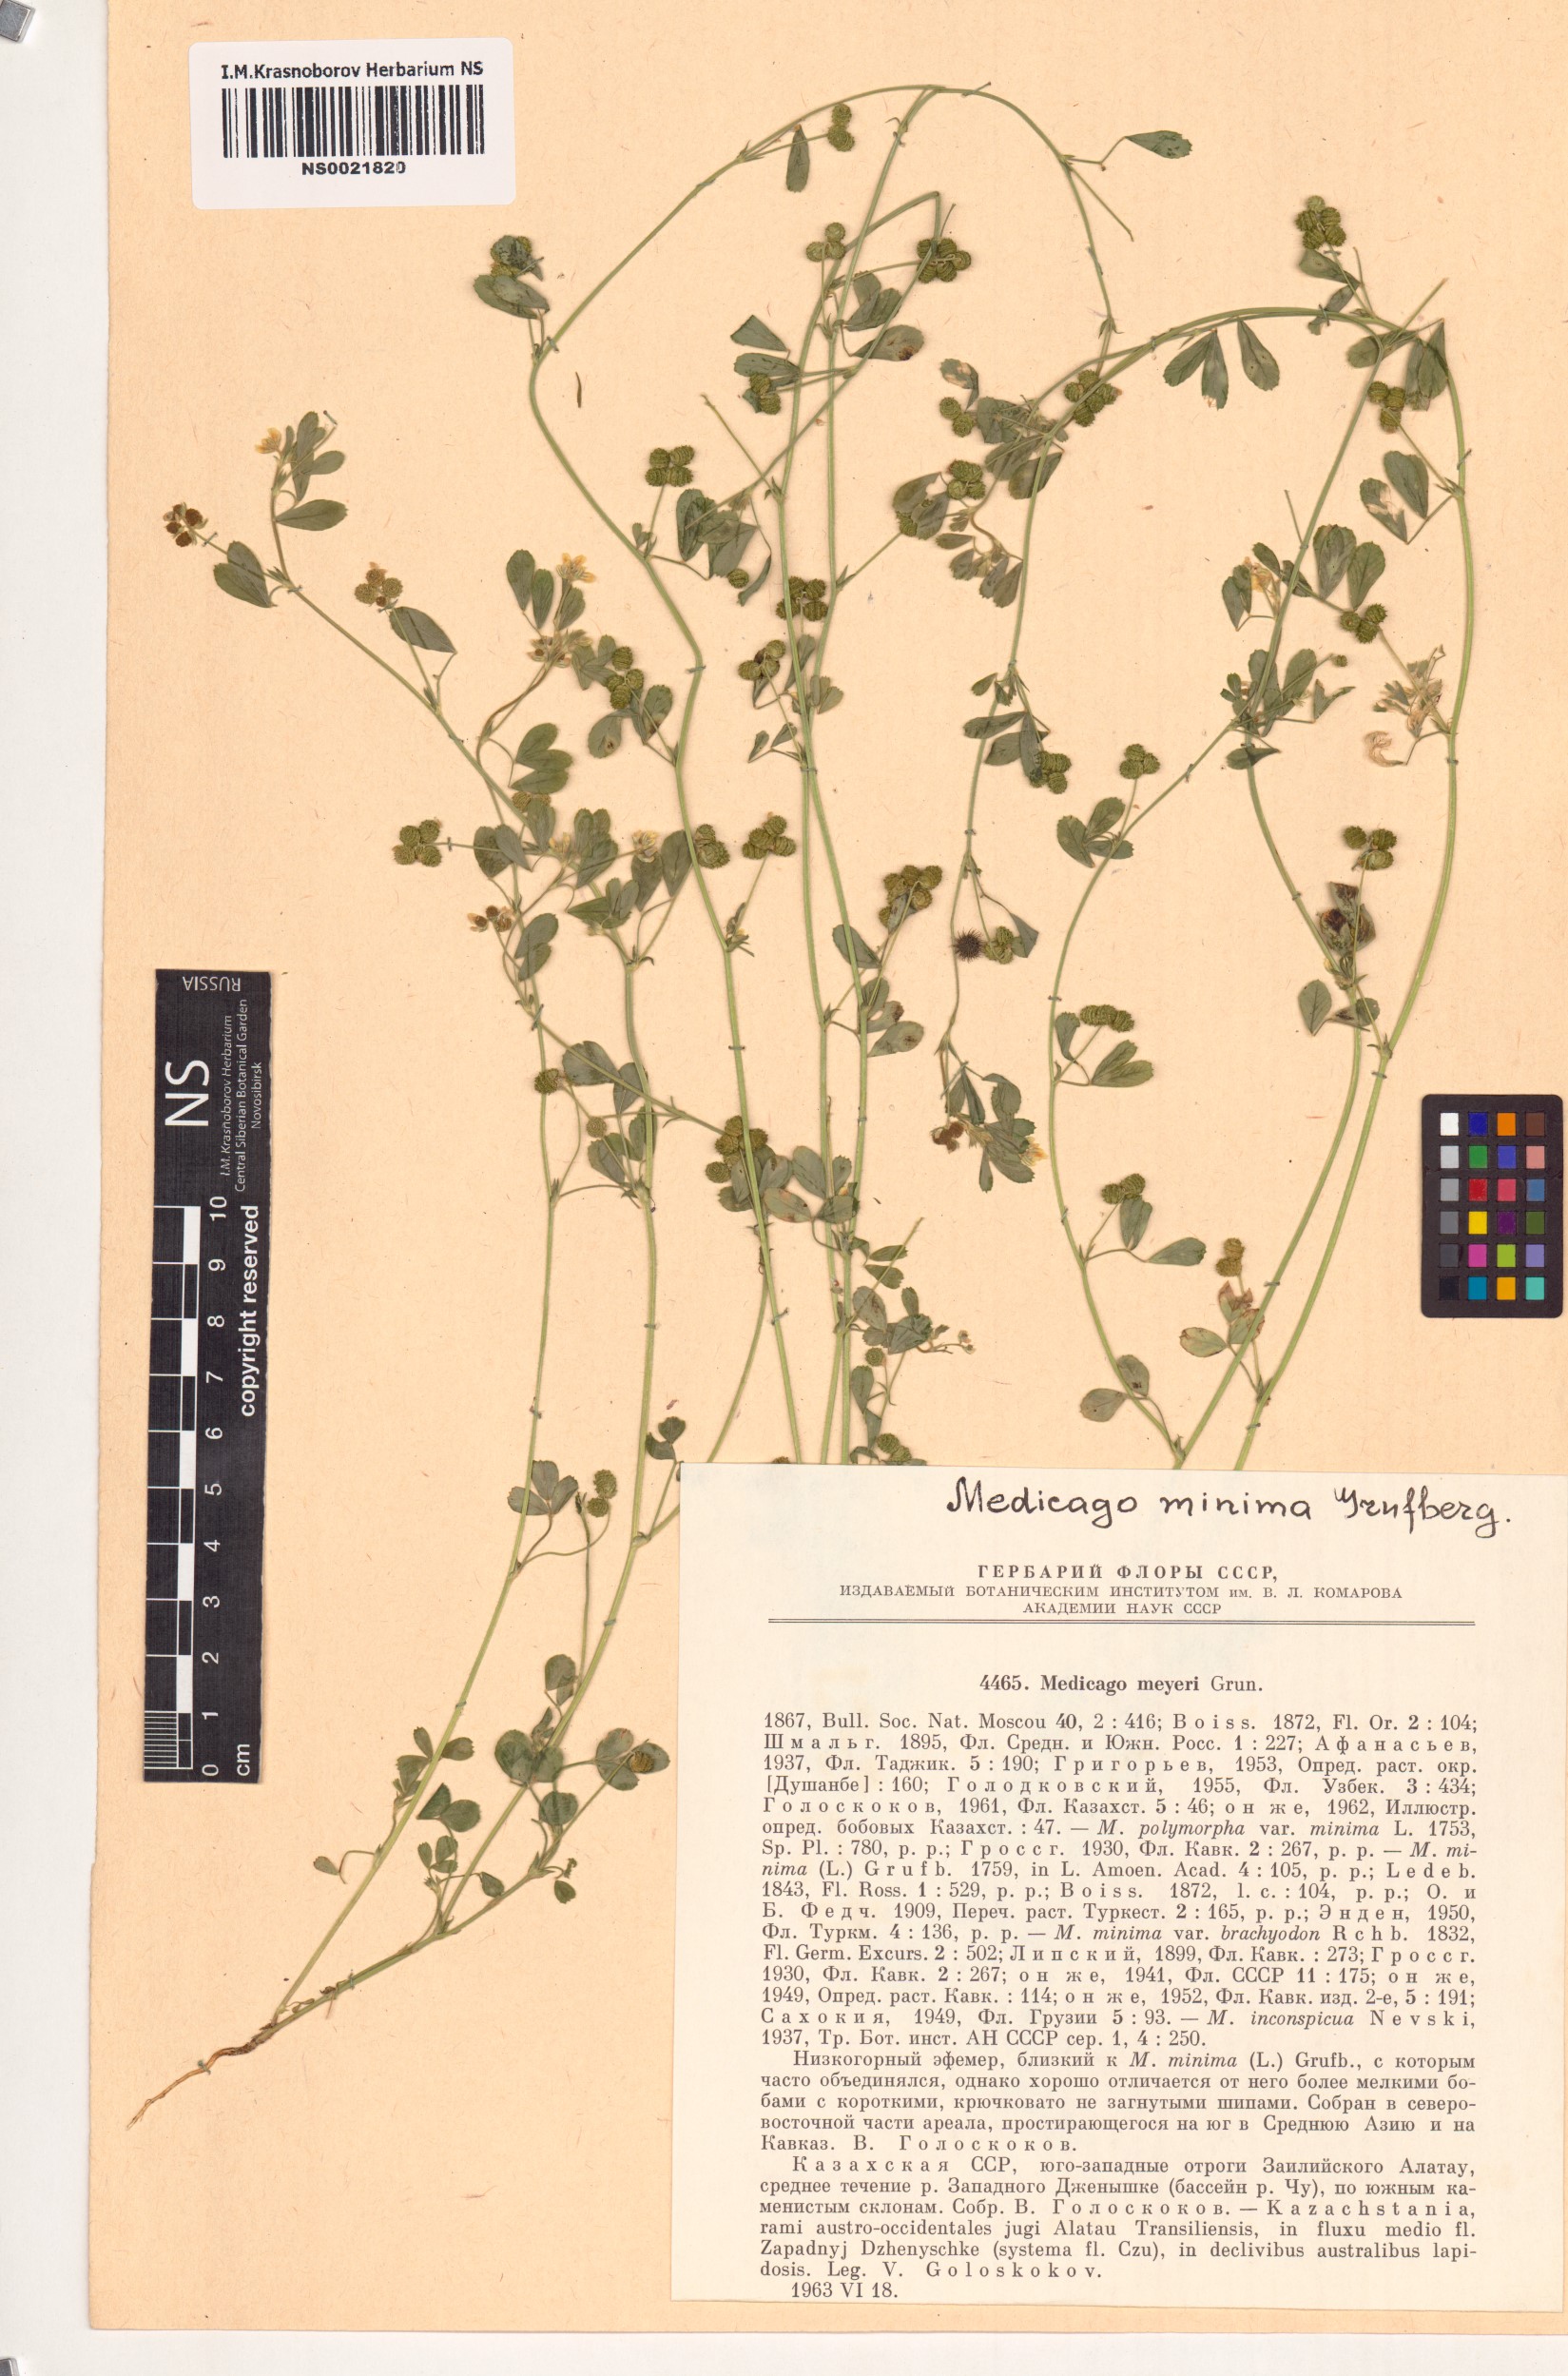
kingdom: Plantae
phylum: Tracheophyta
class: Magnoliopsida
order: Fabales
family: Fabaceae
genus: Medicago
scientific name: Medicago minima
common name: Little bur-clover
